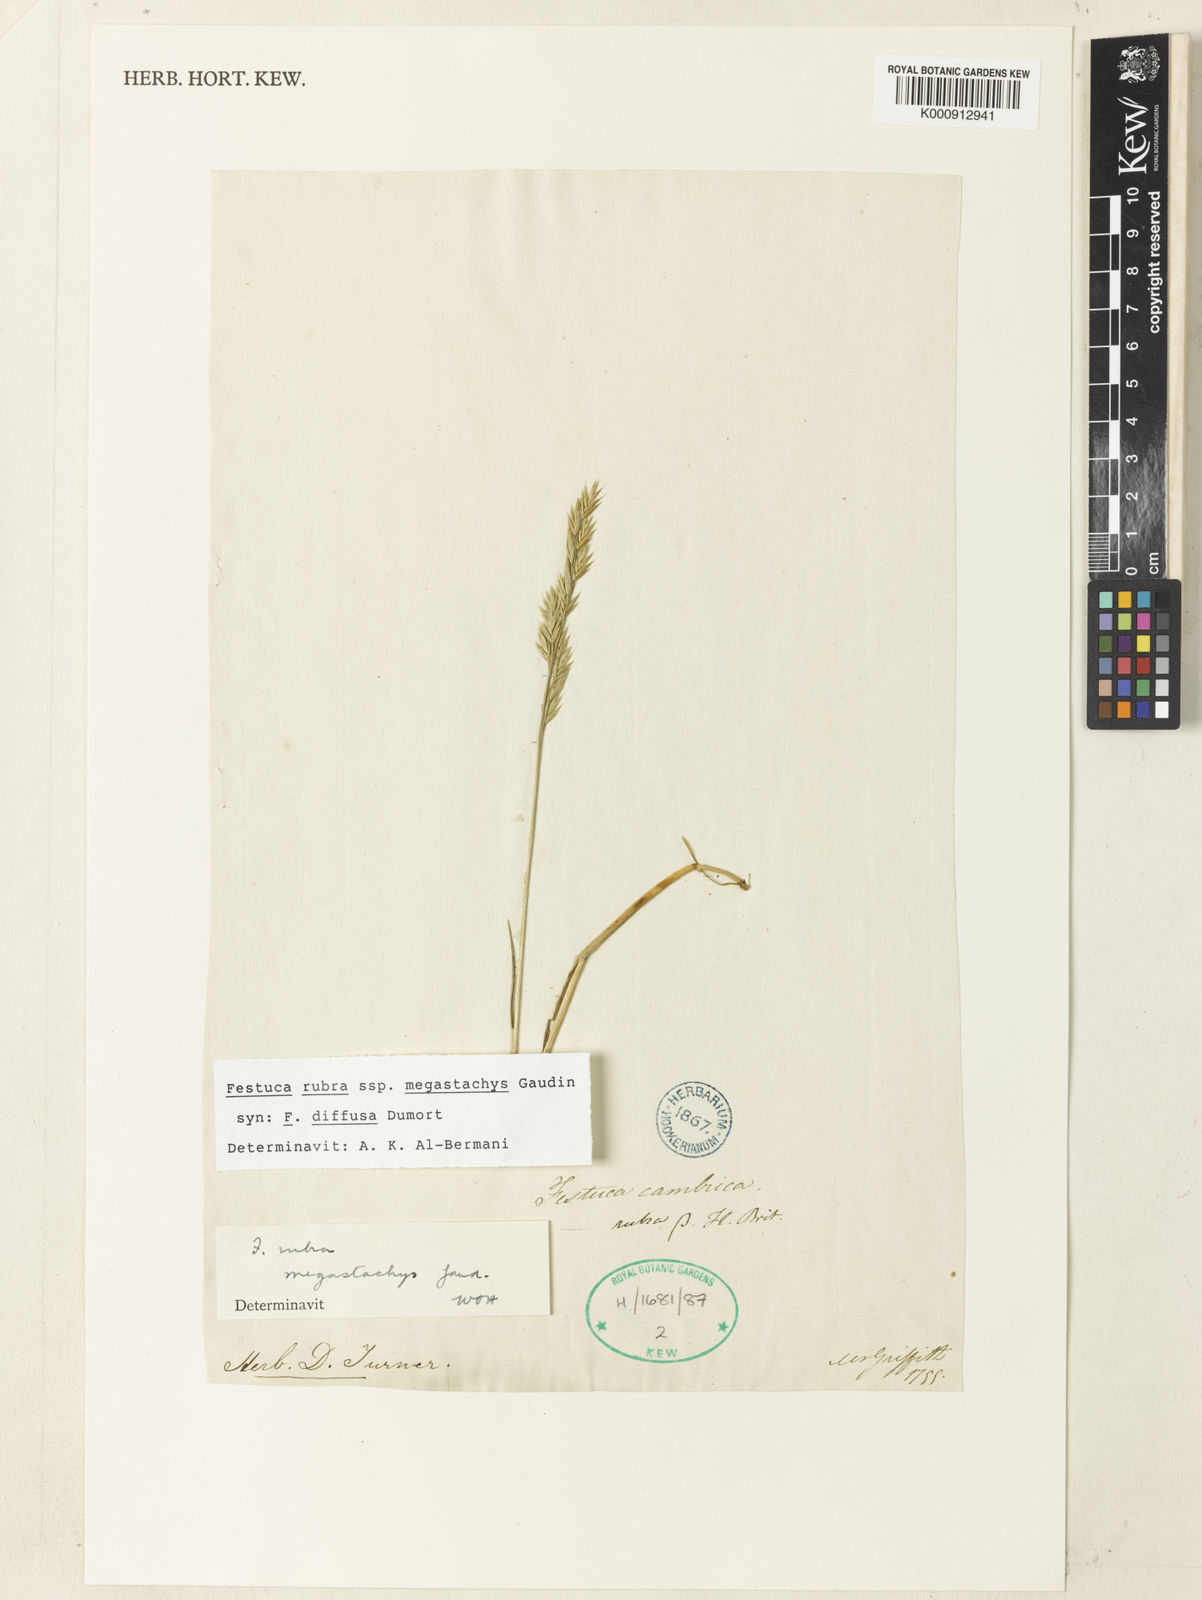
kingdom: Plantae
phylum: Tracheophyta
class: Liliopsida
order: Poales
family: Poaceae
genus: Festuca
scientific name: Festuca rubra
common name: Red fescue
